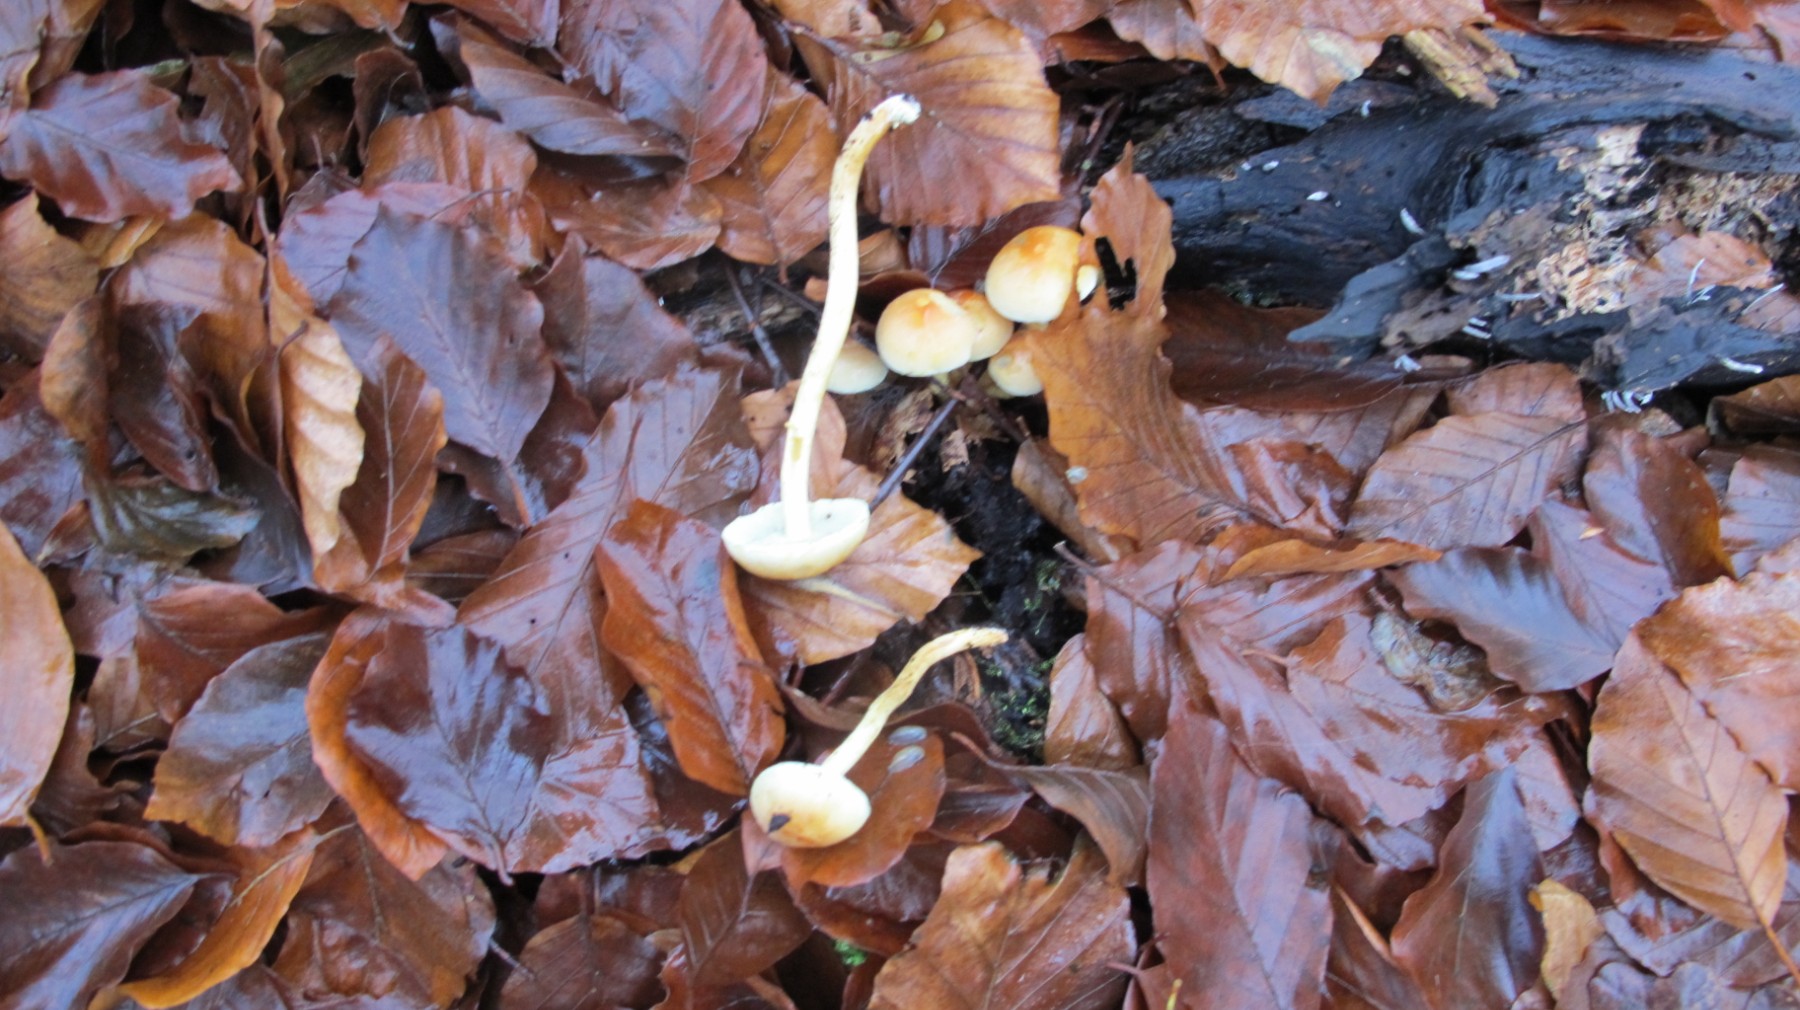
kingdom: Fungi
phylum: Basidiomycota
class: Agaricomycetes
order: Agaricales
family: Strophariaceae
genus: Hypholoma
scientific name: Hypholoma fasciculare
